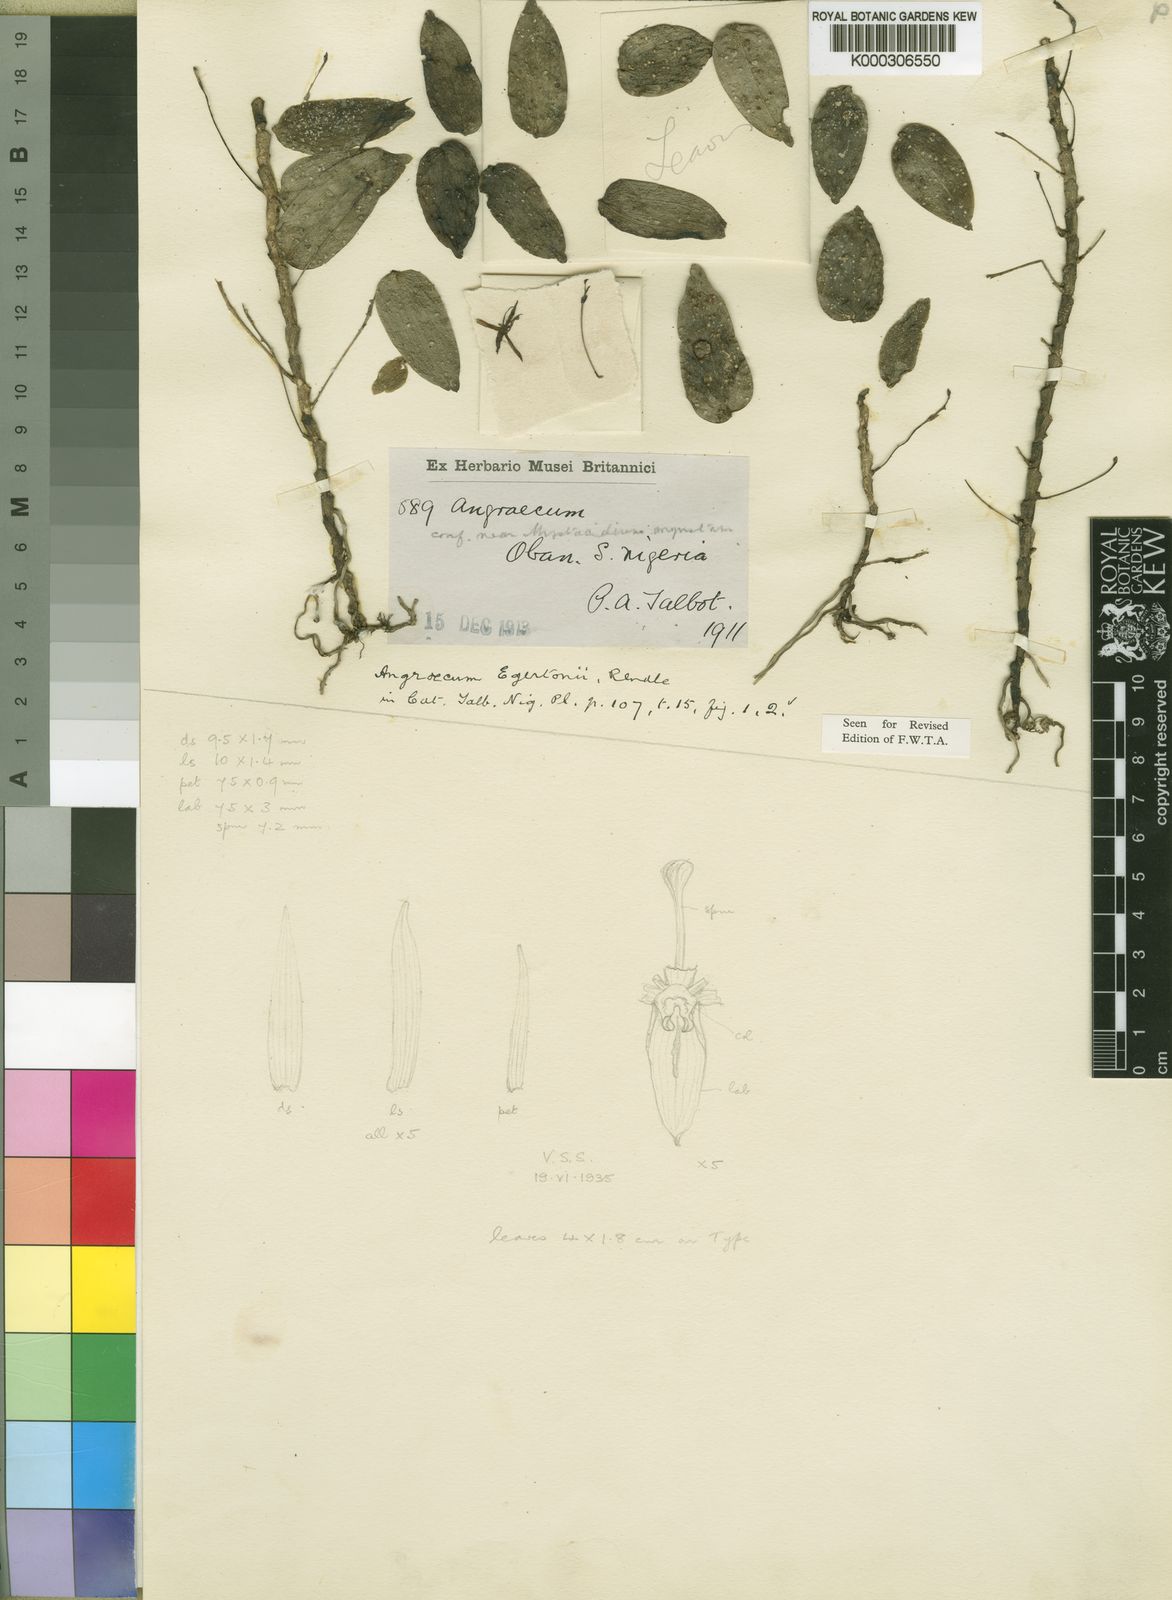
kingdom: Plantae
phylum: Tracheophyta
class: Liliopsida
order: Asparagales
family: Orchidaceae
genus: Angraecum
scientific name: Angraecum egertonii
